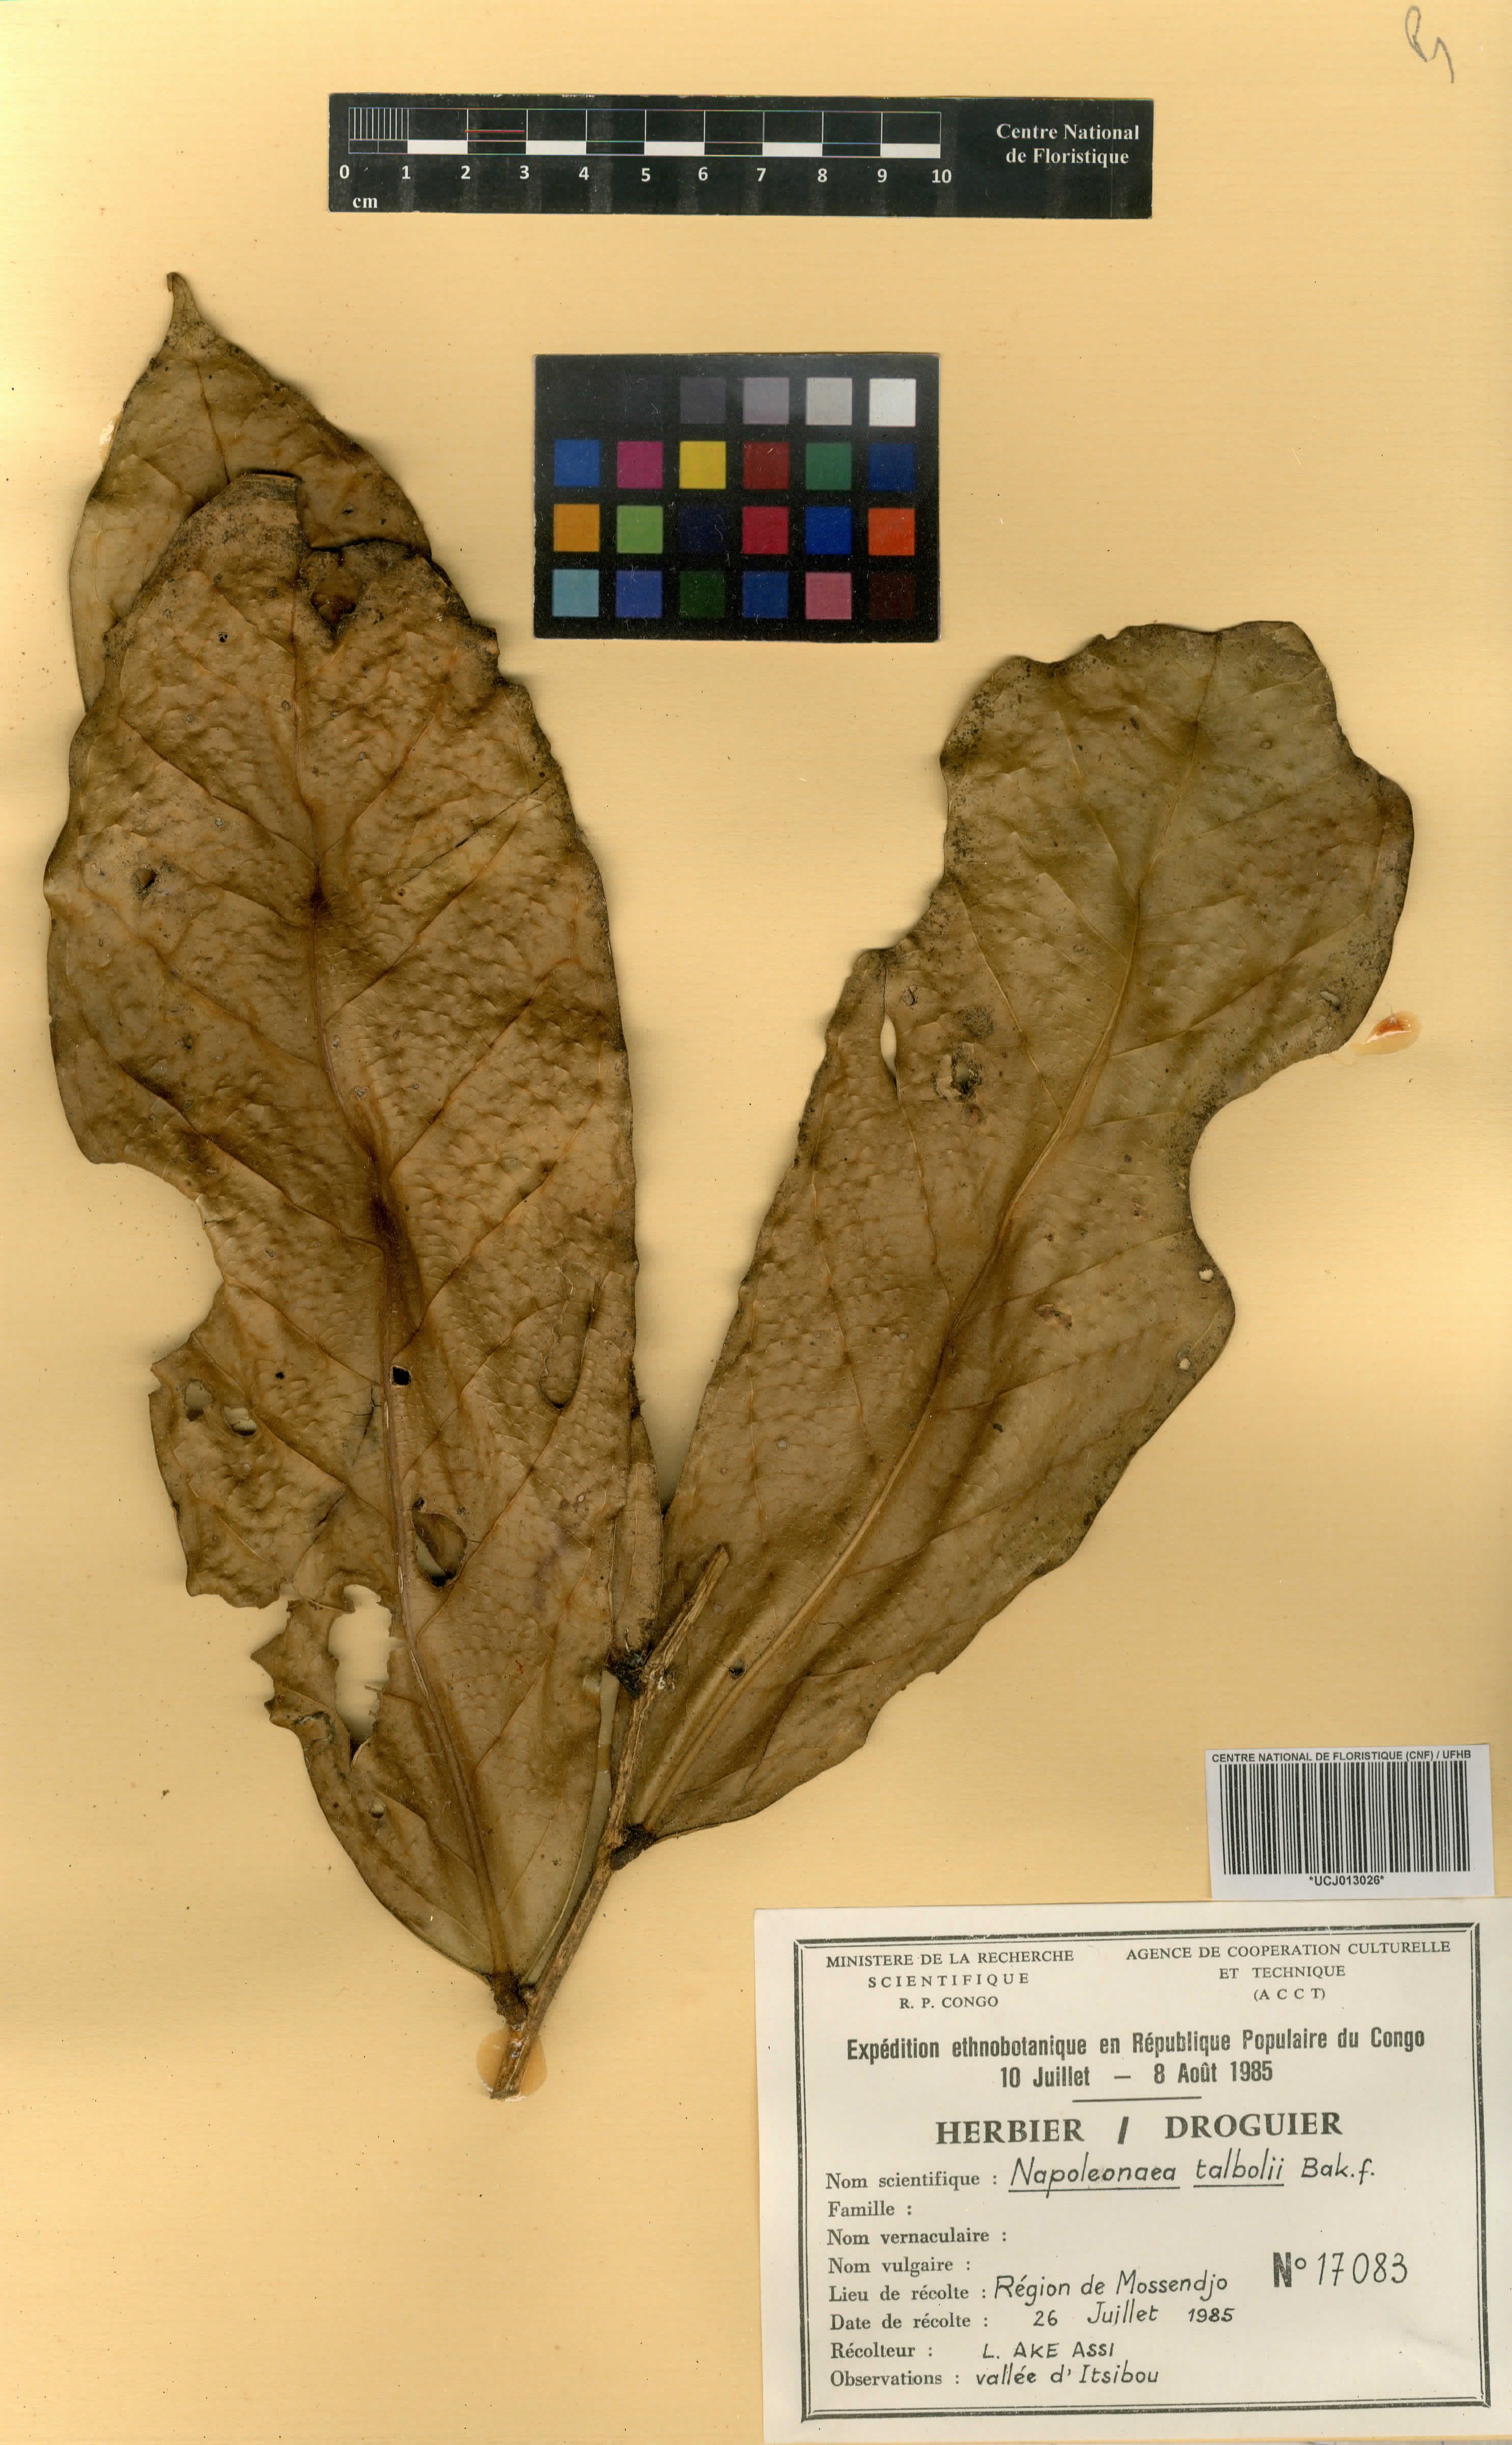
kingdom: Plantae
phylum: Tracheophyta
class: Magnoliopsida
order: Ericales
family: Lecythidaceae
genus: Napoleonaea
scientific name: Napoleonaea talbotii
